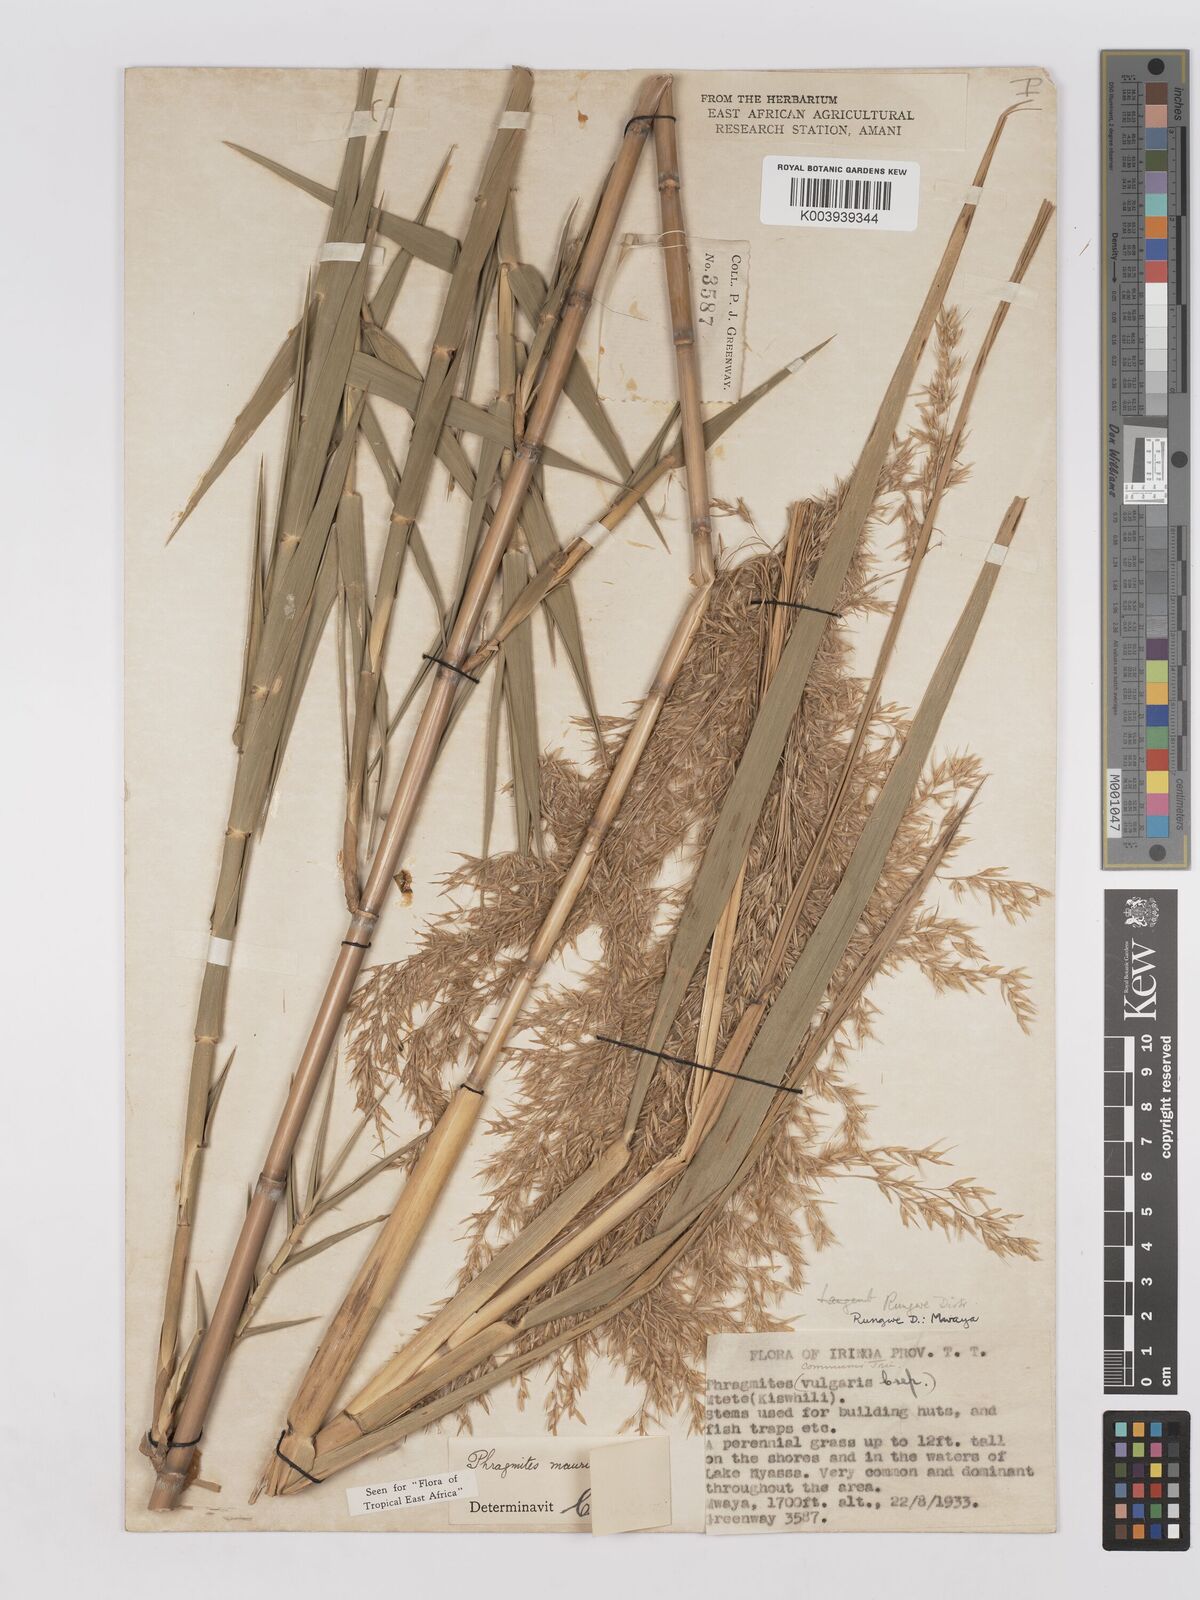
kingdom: Plantae
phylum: Tracheophyta
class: Liliopsida
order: Poales
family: Poaceae
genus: Phragmites
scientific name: Phragmites mauritianus
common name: Reed grass
